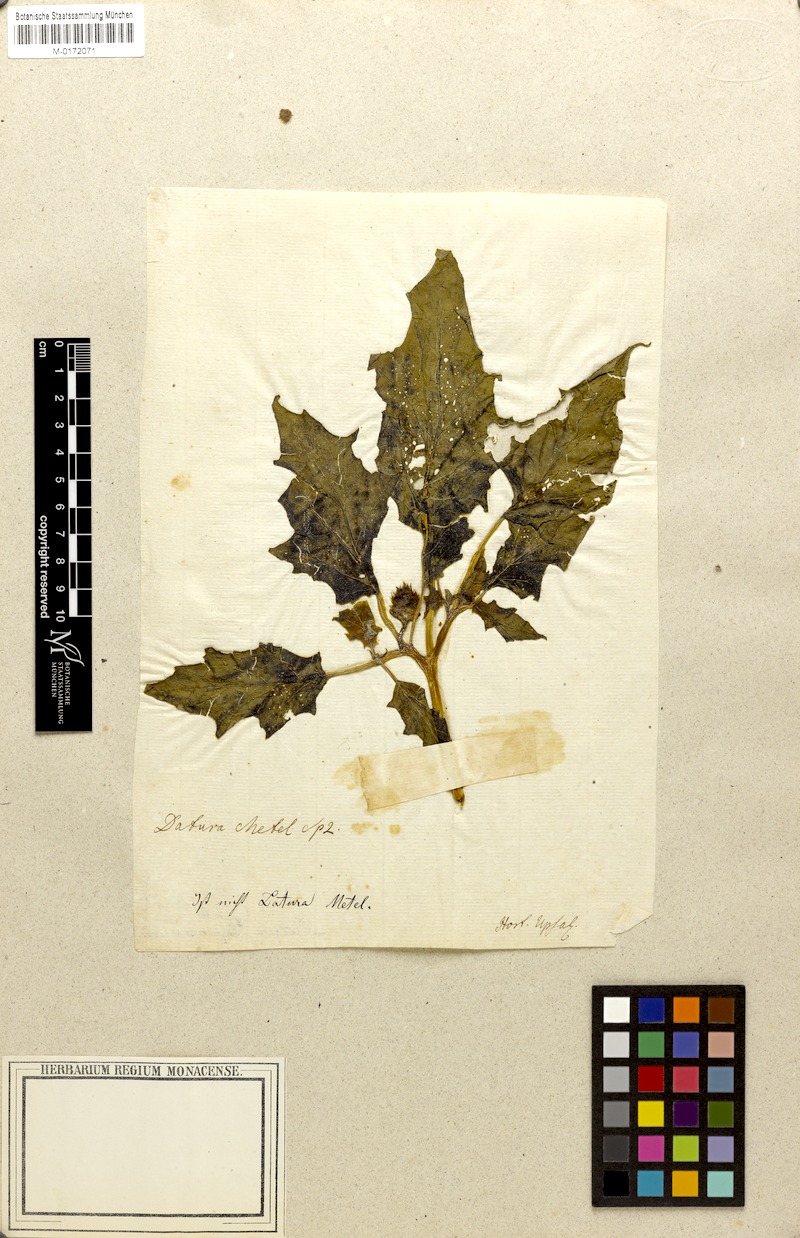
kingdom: Plantae
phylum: Tracheophyta
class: Magnoliopsida
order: Solanales
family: Solanaceae
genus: Datura
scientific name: Datura stramonium
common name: Thorn-apple
